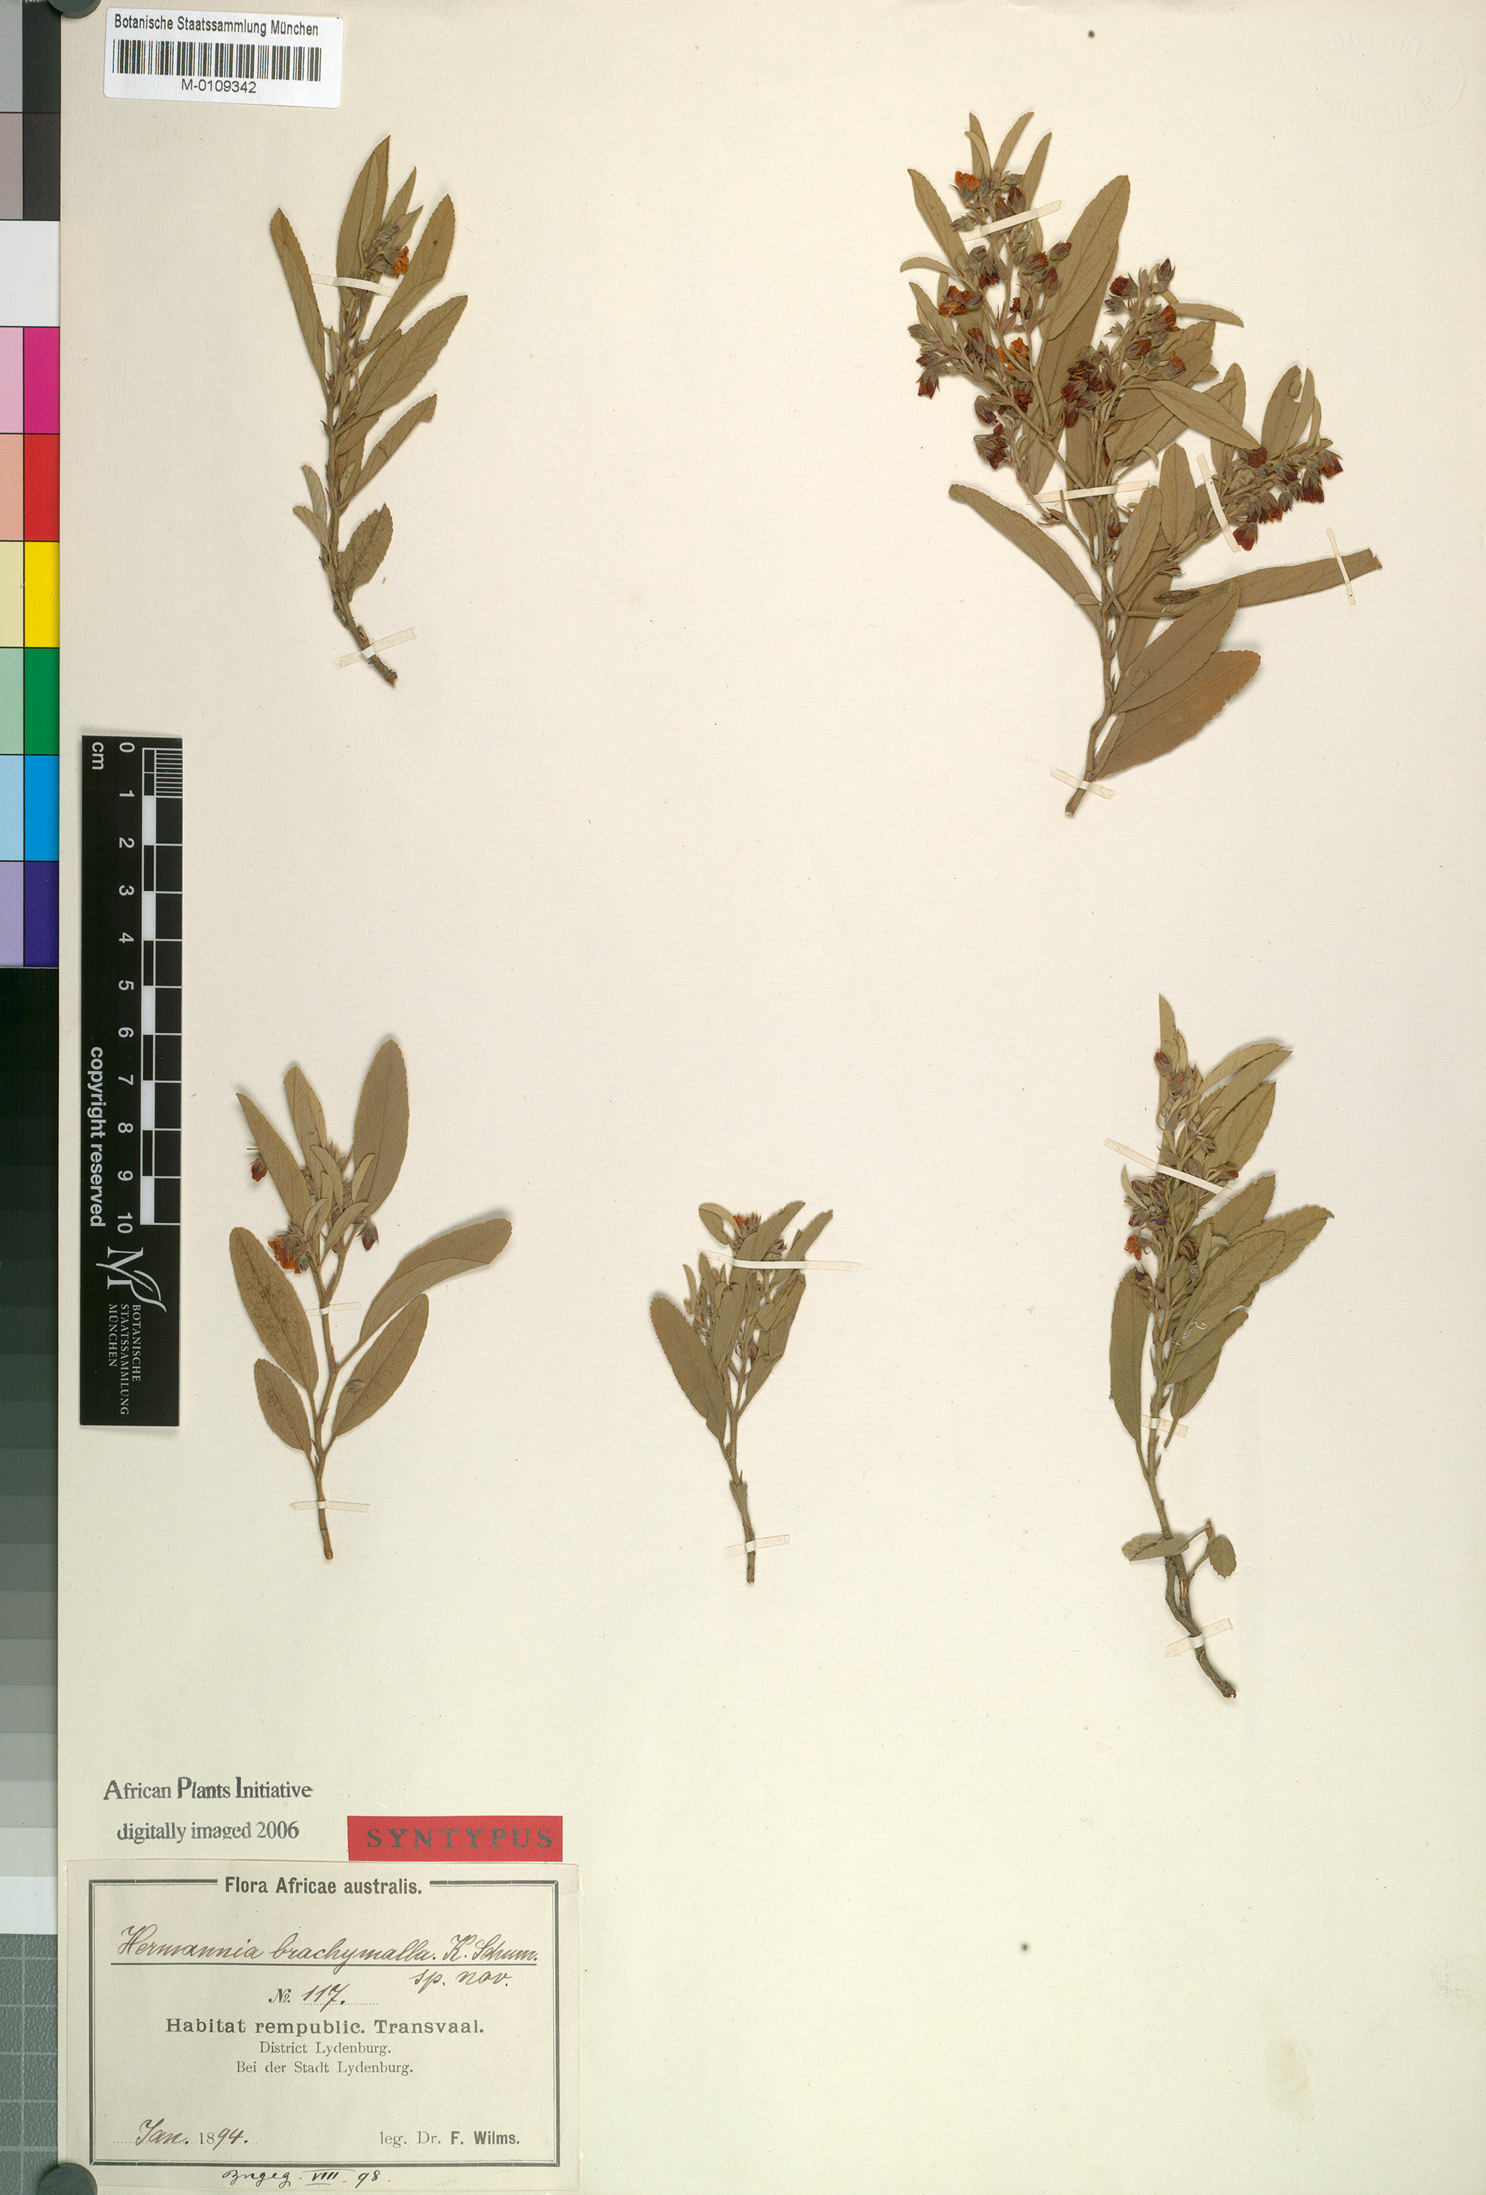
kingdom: Plantae
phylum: Tracheophyta
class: Magnoliopsida
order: Malvales
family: Malvaceae
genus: Hermannia
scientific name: Hermannia brachymalla
